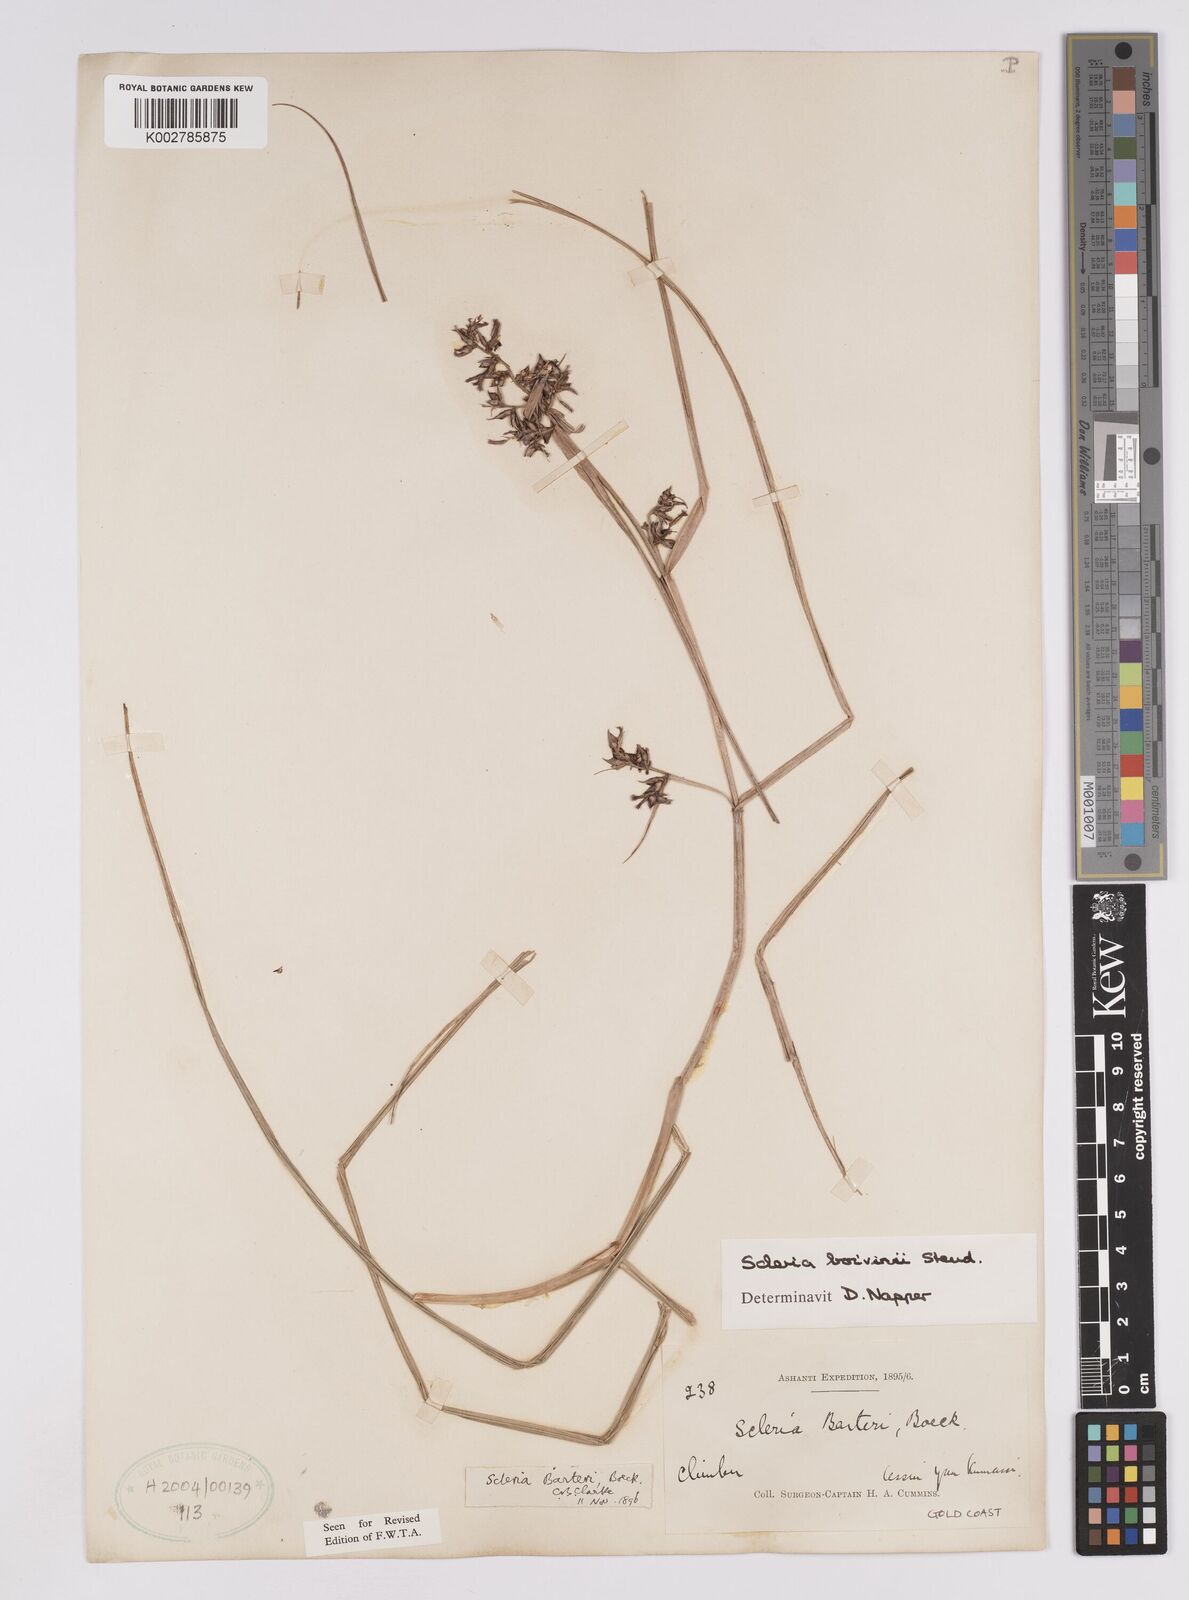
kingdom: Plantae
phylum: Tracheophyta
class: Liliopsida
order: Poales
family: Cyperaceae
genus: Scleria
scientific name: Scleria boivinii
